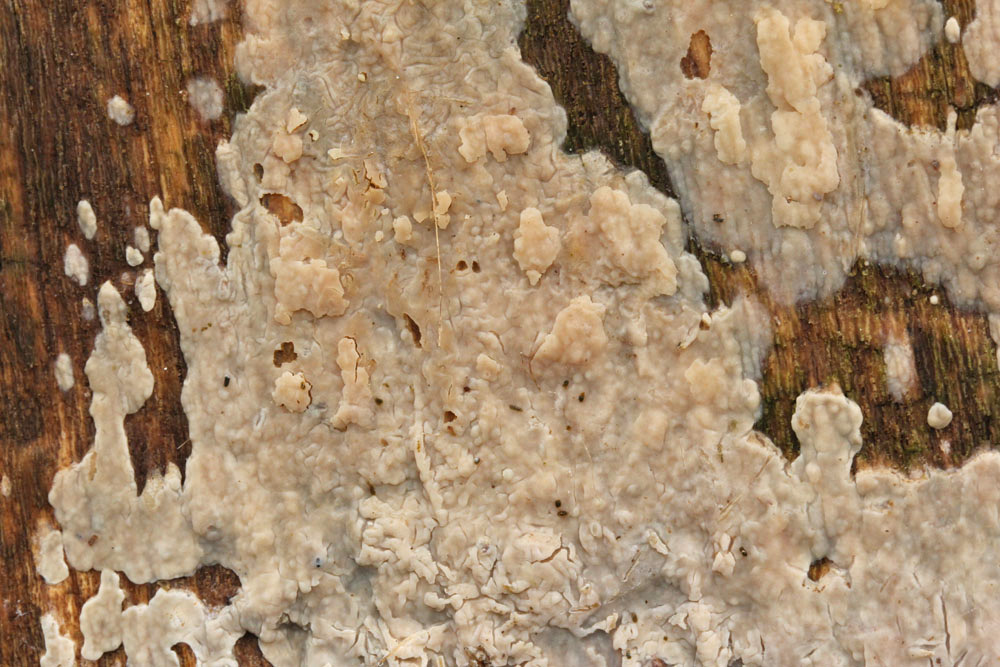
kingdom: Fungi
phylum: Basidiomycota
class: Agaricomycetes
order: Agaricales
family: Radulomycetaceae
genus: Radulomyces
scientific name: Radulomyces confluens
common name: glat naftalinskind
